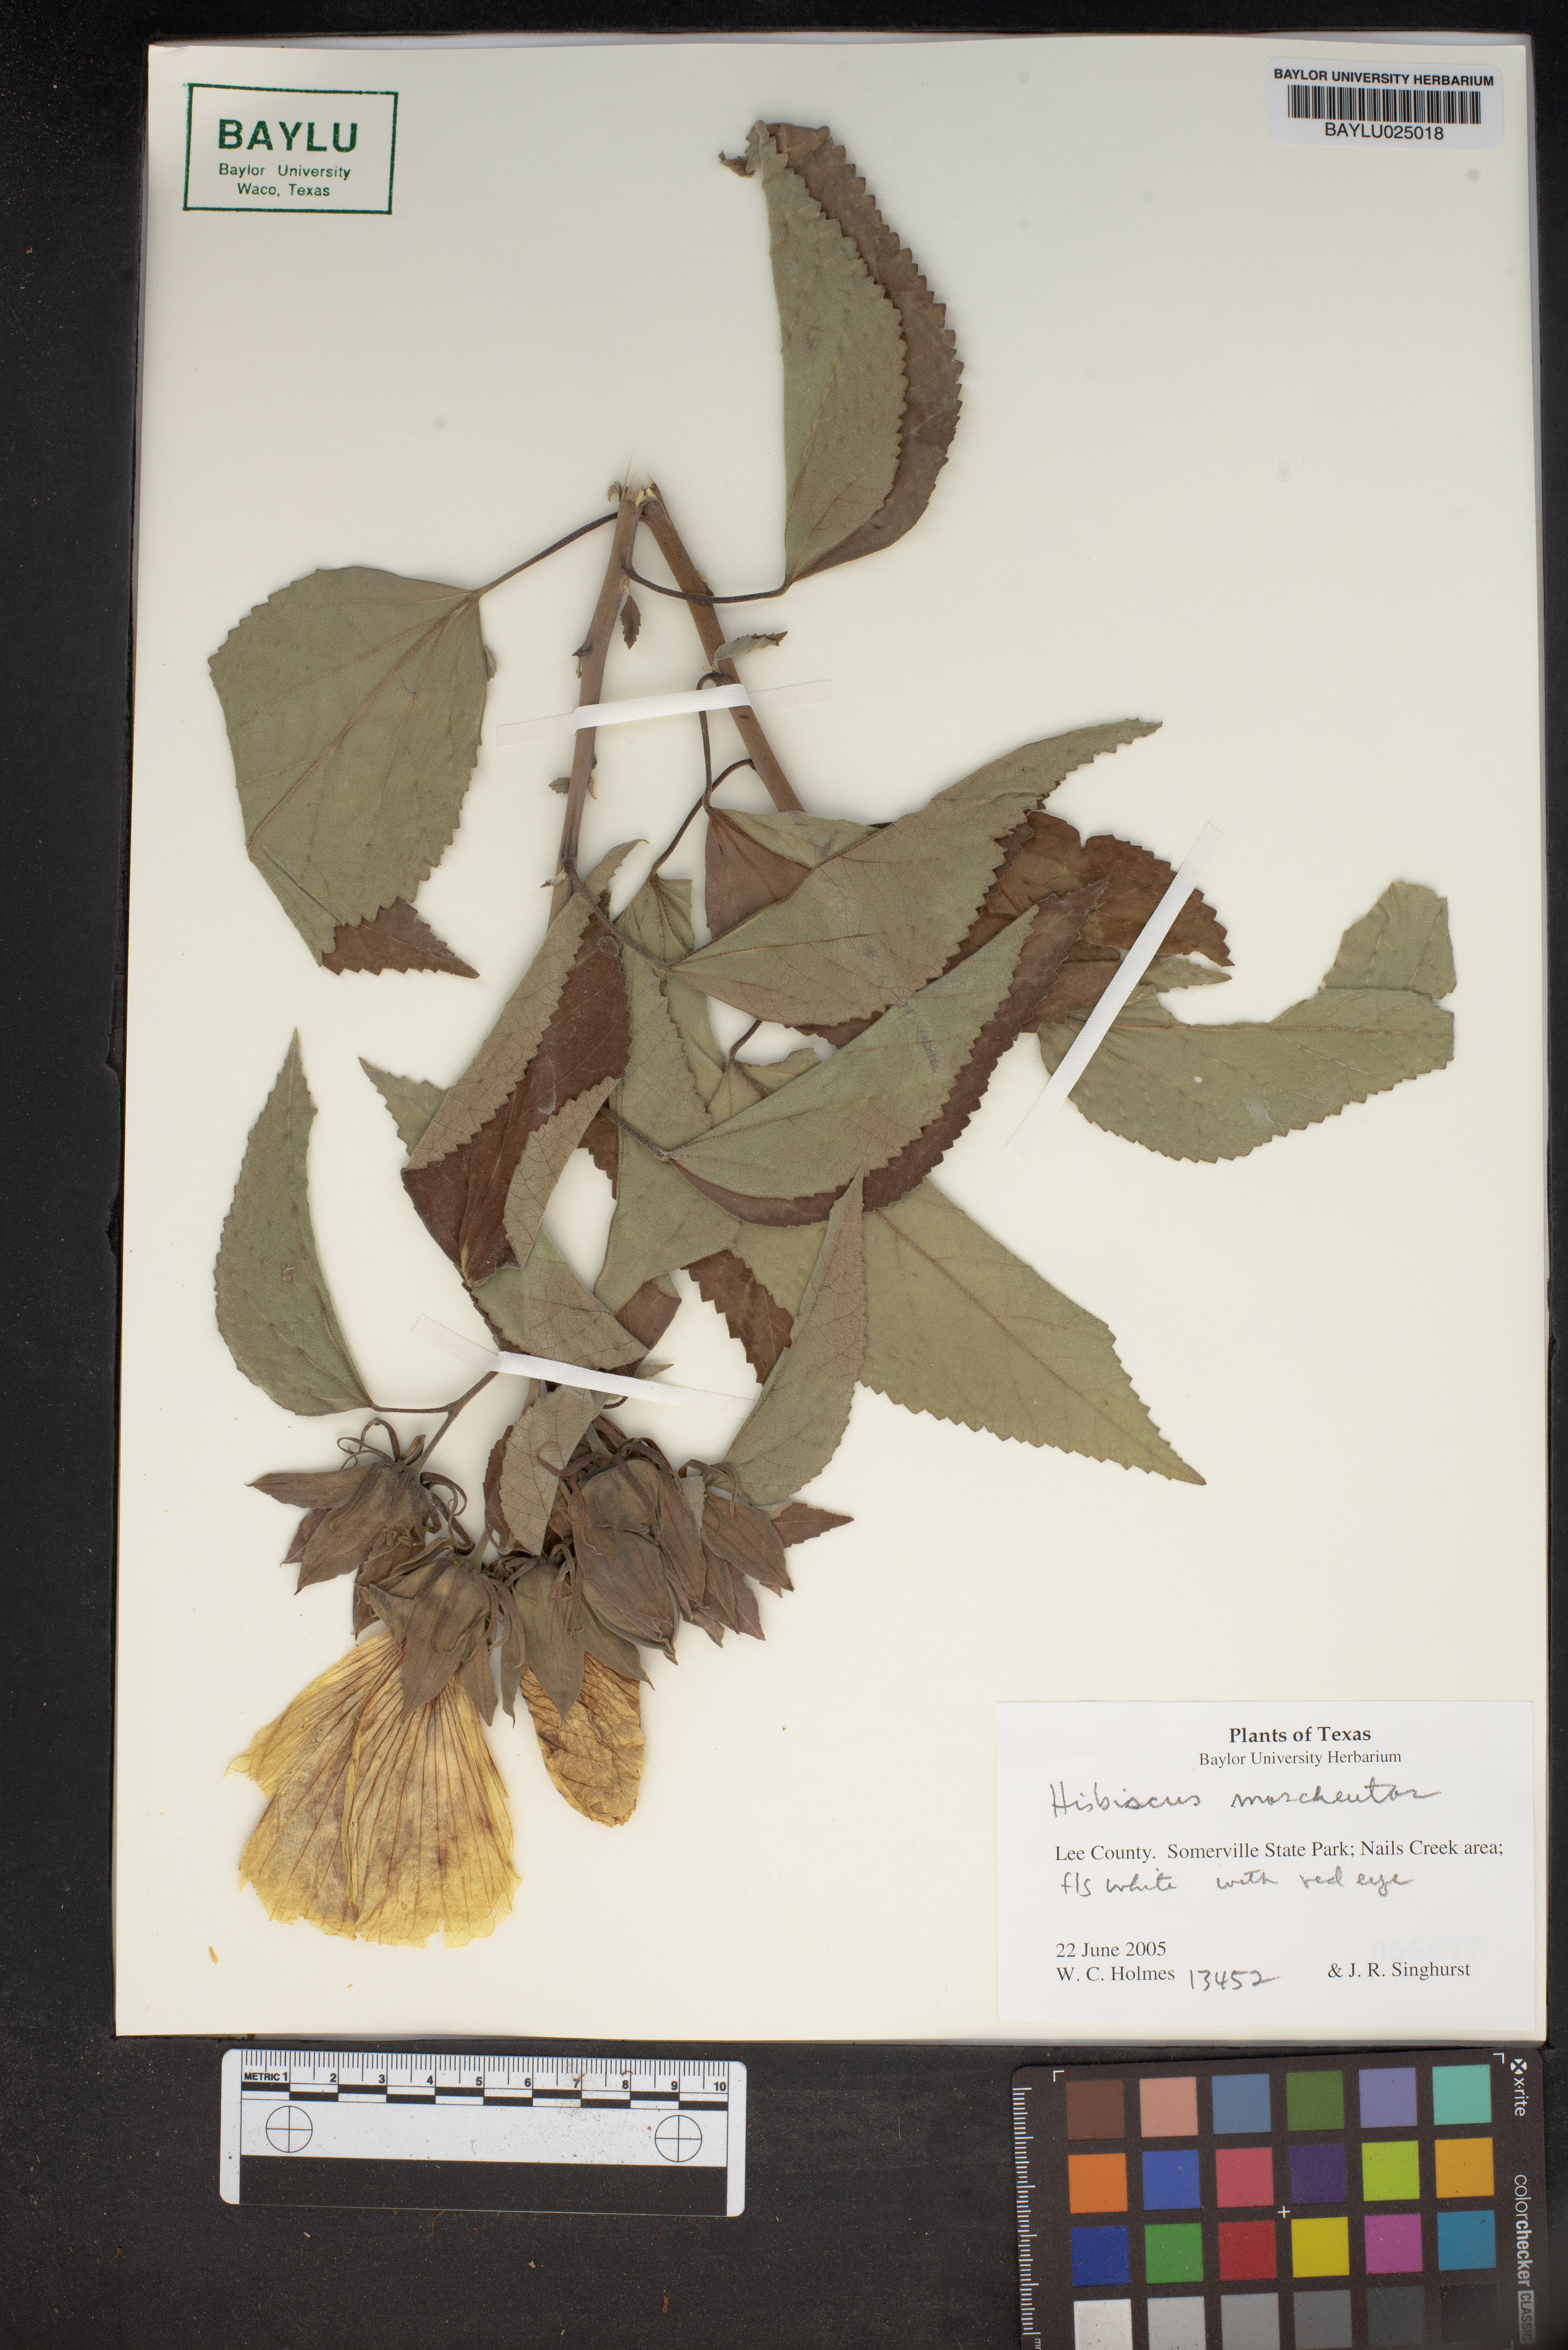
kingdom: Plantae
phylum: Tracheophyta
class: Magnoliopsida
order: Malvales
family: Malvaceae
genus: Hibiscus
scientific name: Hibiscus
